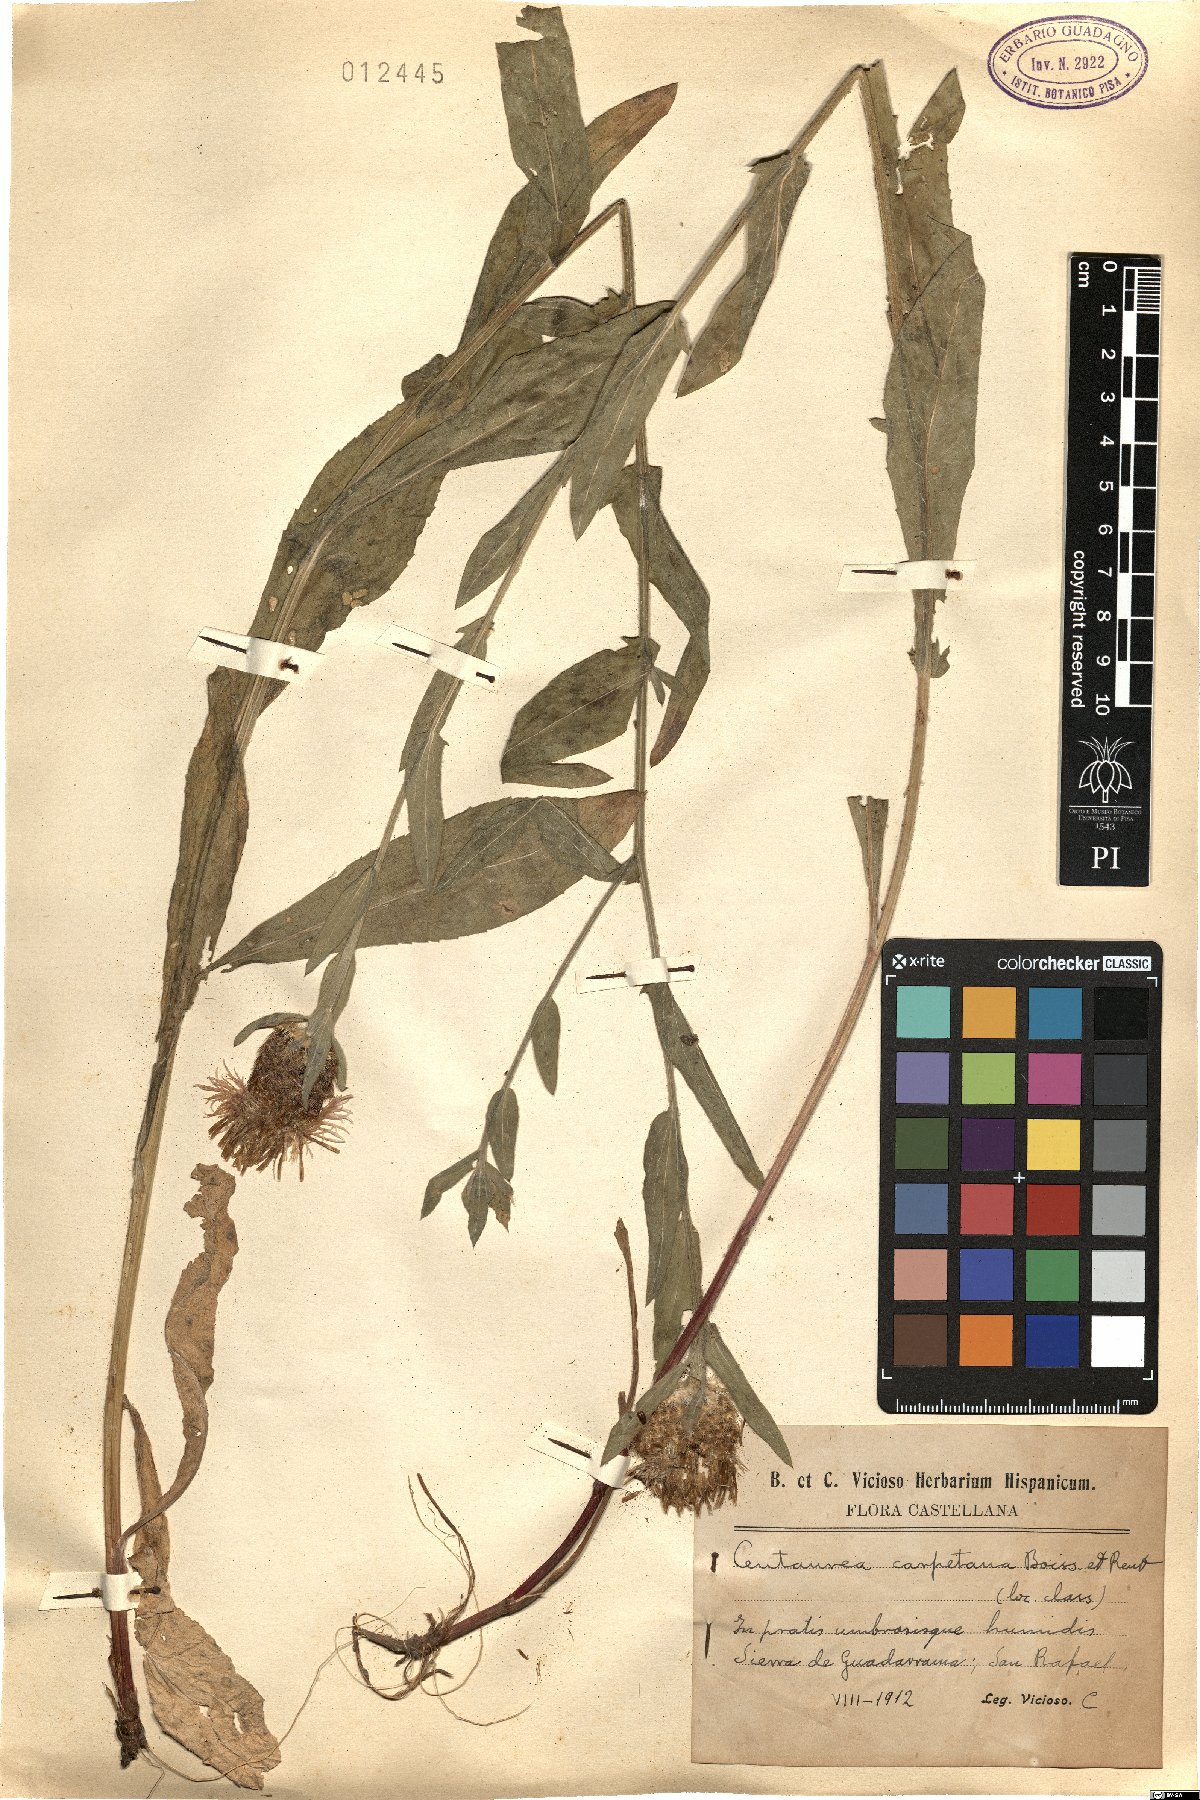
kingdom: Plantae
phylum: Tracheophyta
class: Magnoliopsida
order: Asterales
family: Asteraceae
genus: Centaurea
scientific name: Centaurea nigra
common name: Lesser knapweed
